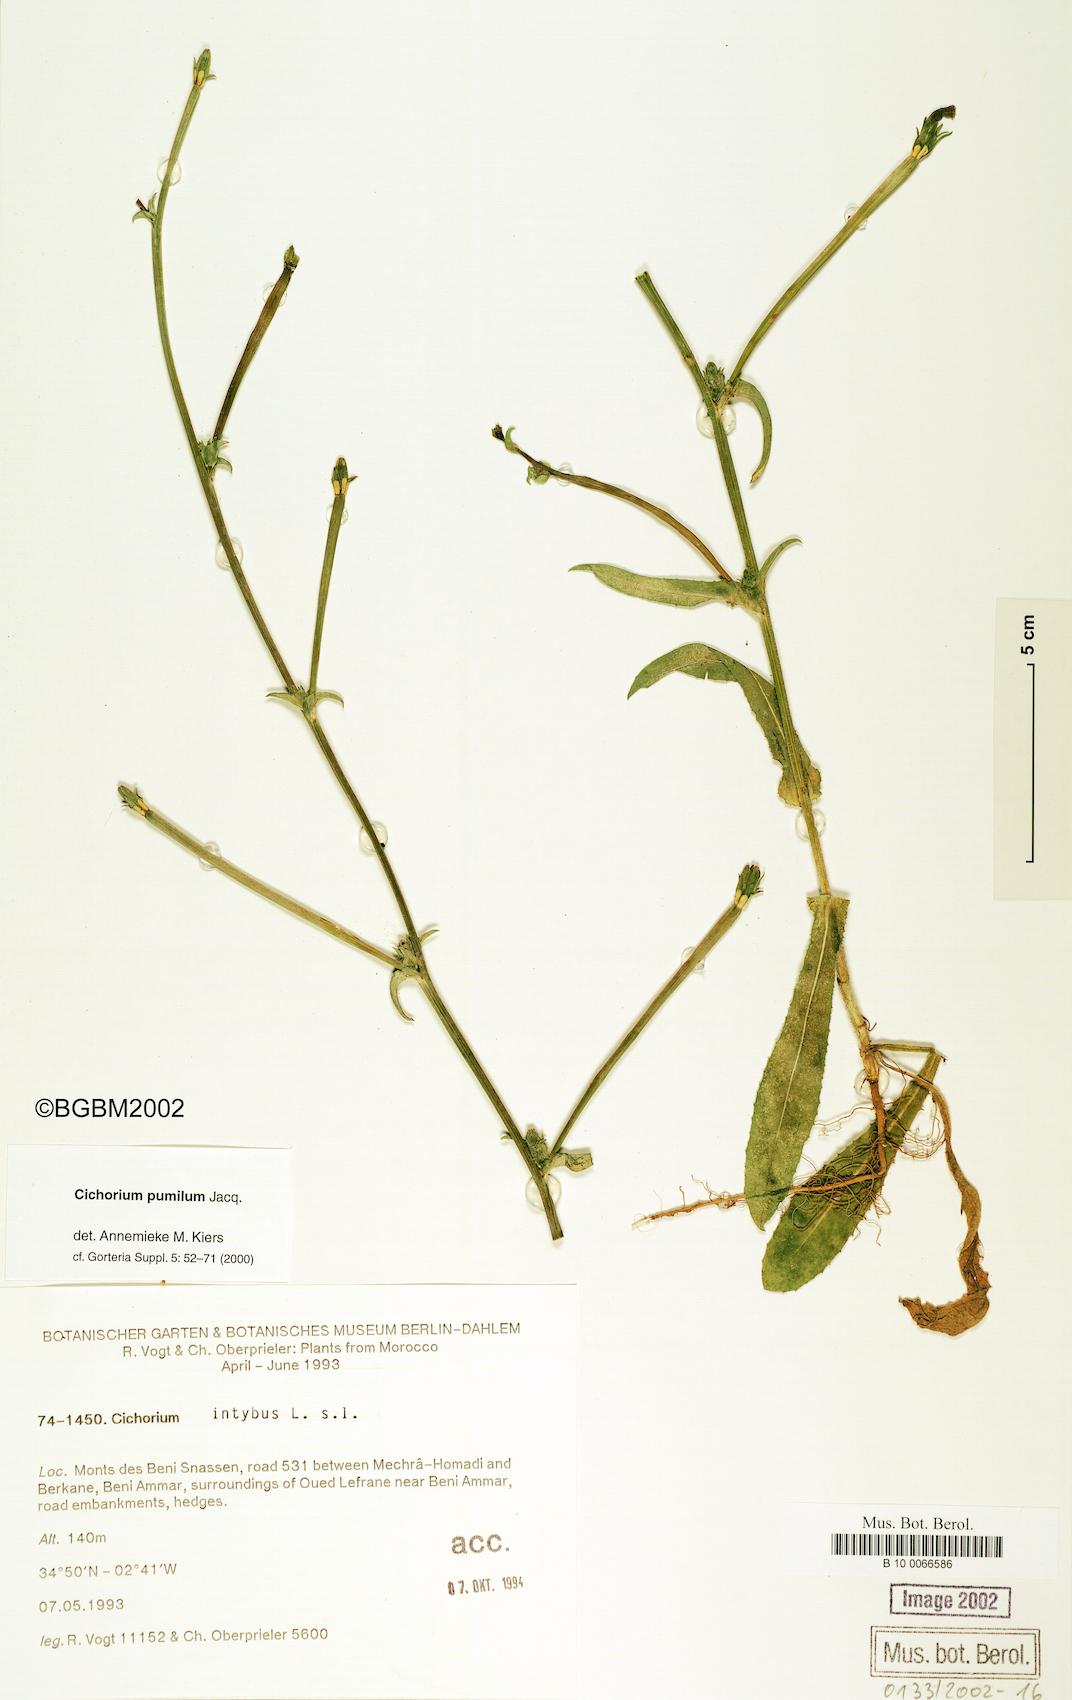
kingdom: Plantae
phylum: Tracheophyta
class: Magnoliopsida
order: Asterales
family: Asteraceae
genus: Cichorium
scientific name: Cichorium pumilum
